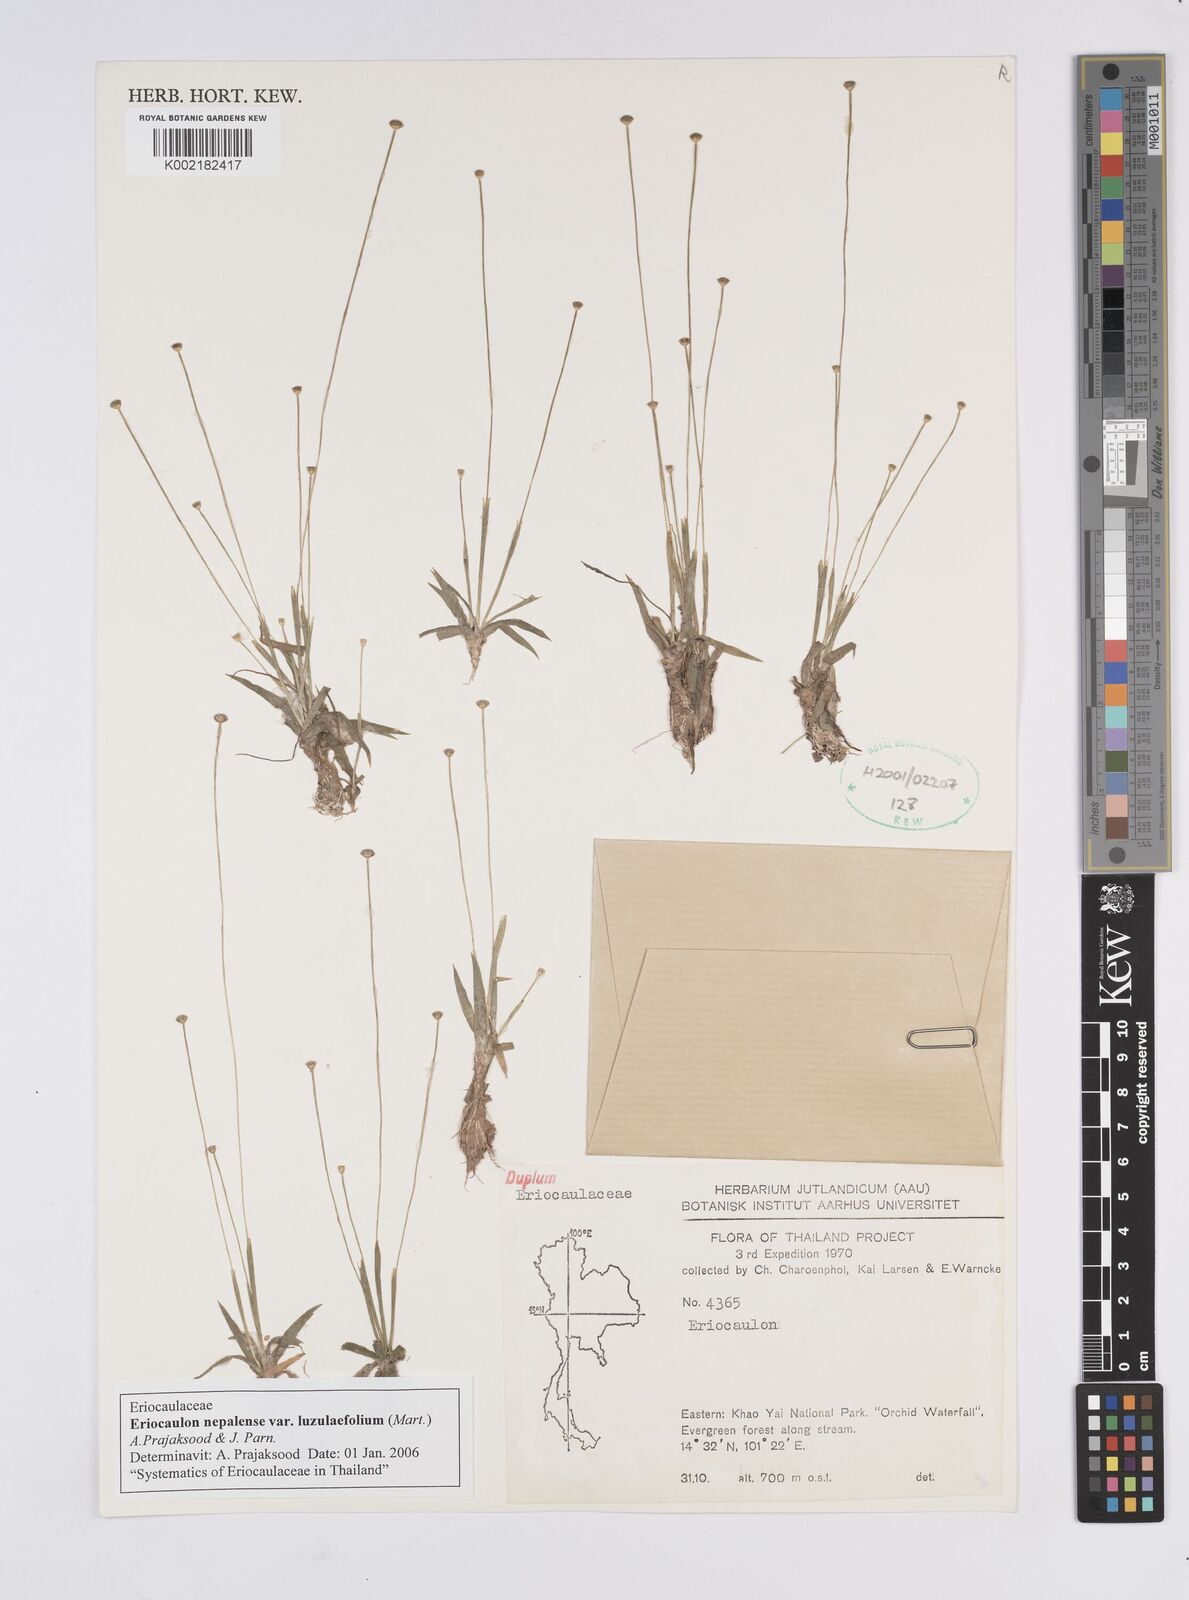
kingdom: Plantae
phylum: Tracheophyta
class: Liliopsida
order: Poales
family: Eriocaulaceae
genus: Eriocaulon
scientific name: Eriocaulon nepalense
